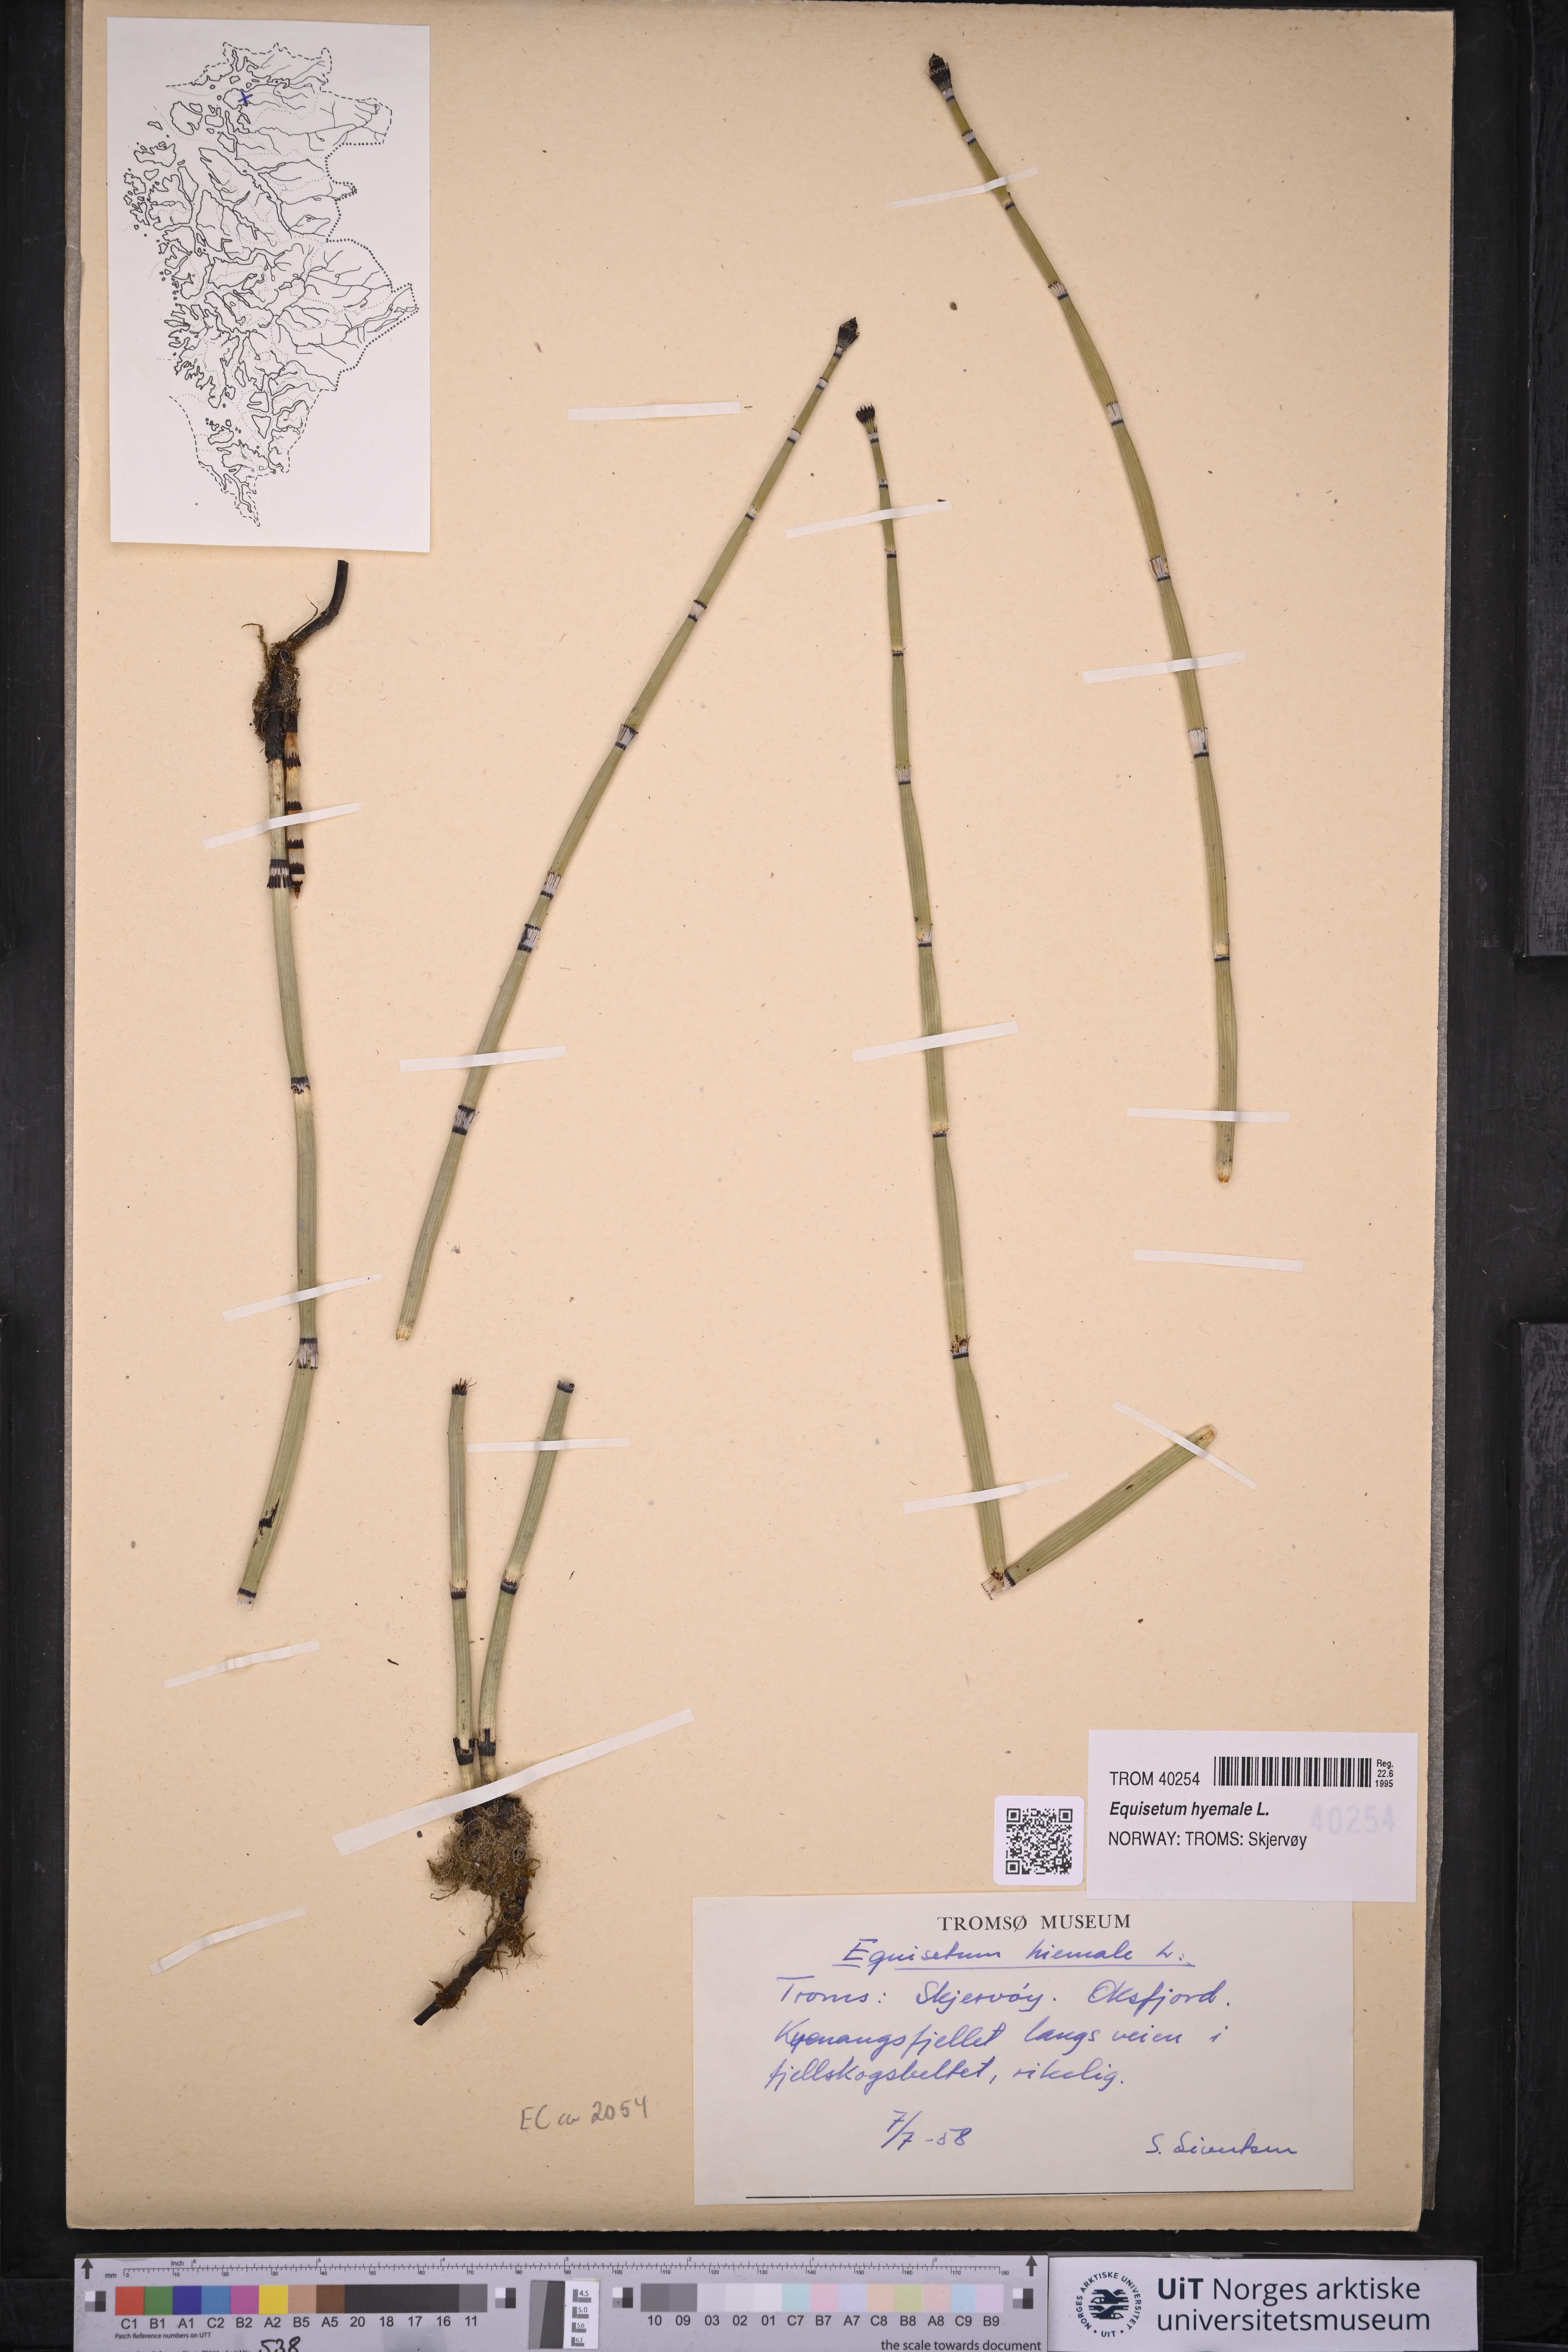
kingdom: Plantae
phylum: Tracheophyta
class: Polypodiopsida
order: Equisetales
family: Equisetaceae
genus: Equisetum
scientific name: Equisetum hyemale
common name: Rough horsetail
